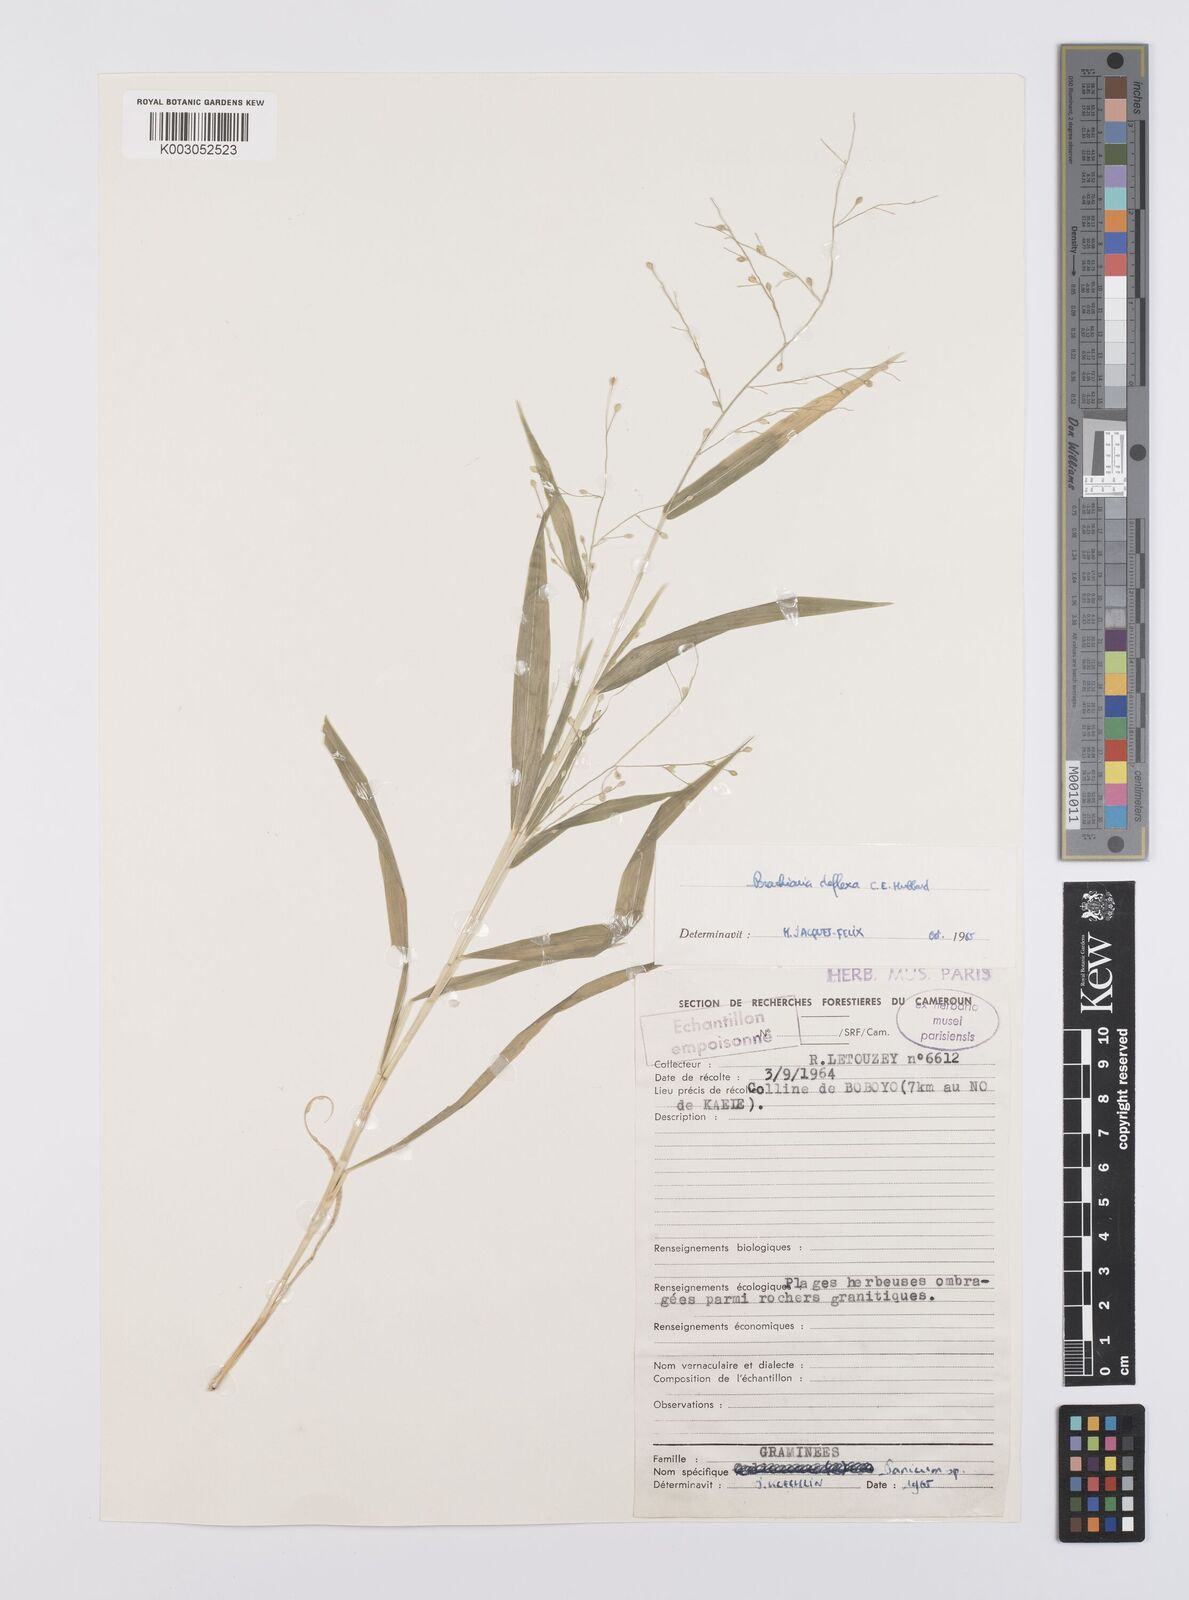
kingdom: Plantae
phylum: Tracheophyta
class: Liliopsida
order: Poales
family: Poaceae
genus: Urochloa
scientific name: Urochloa deflexa
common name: Guinea millet
